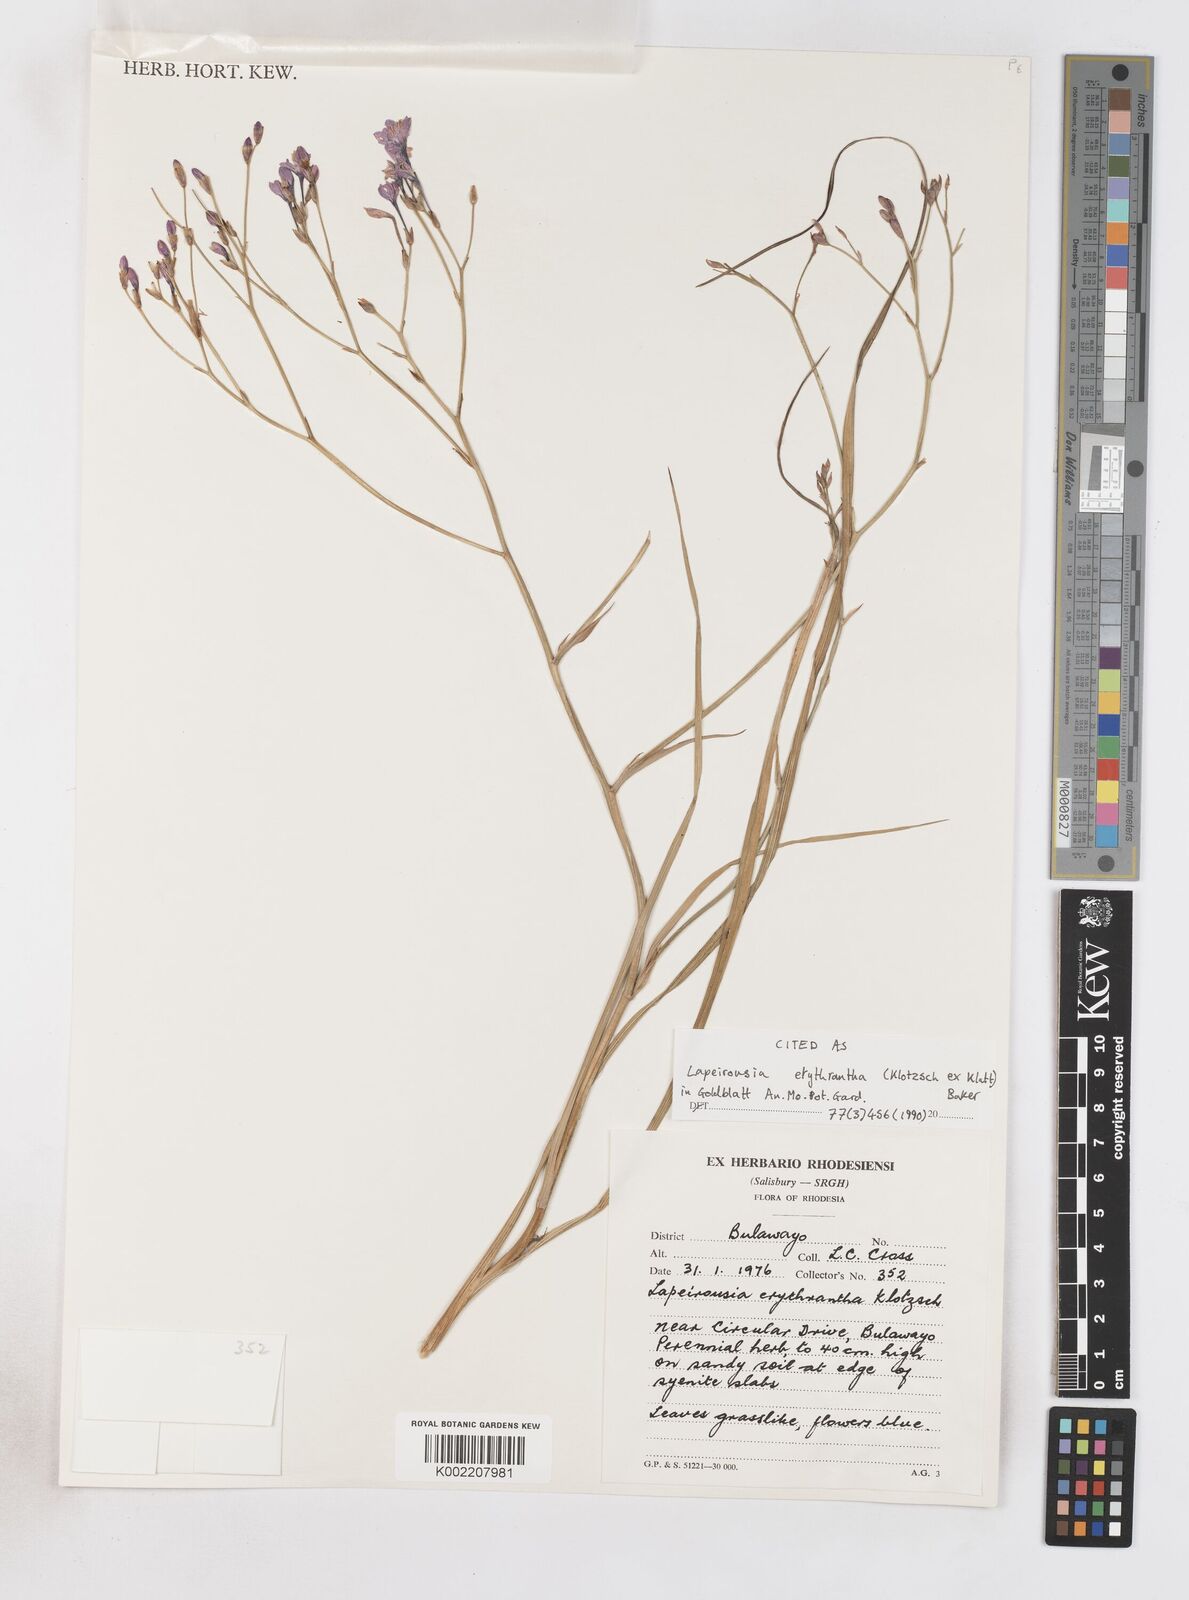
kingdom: Plantae
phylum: Tracheophyta
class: Liliopsida
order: Asparagales
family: Iridaceae
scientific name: Iridaceae
